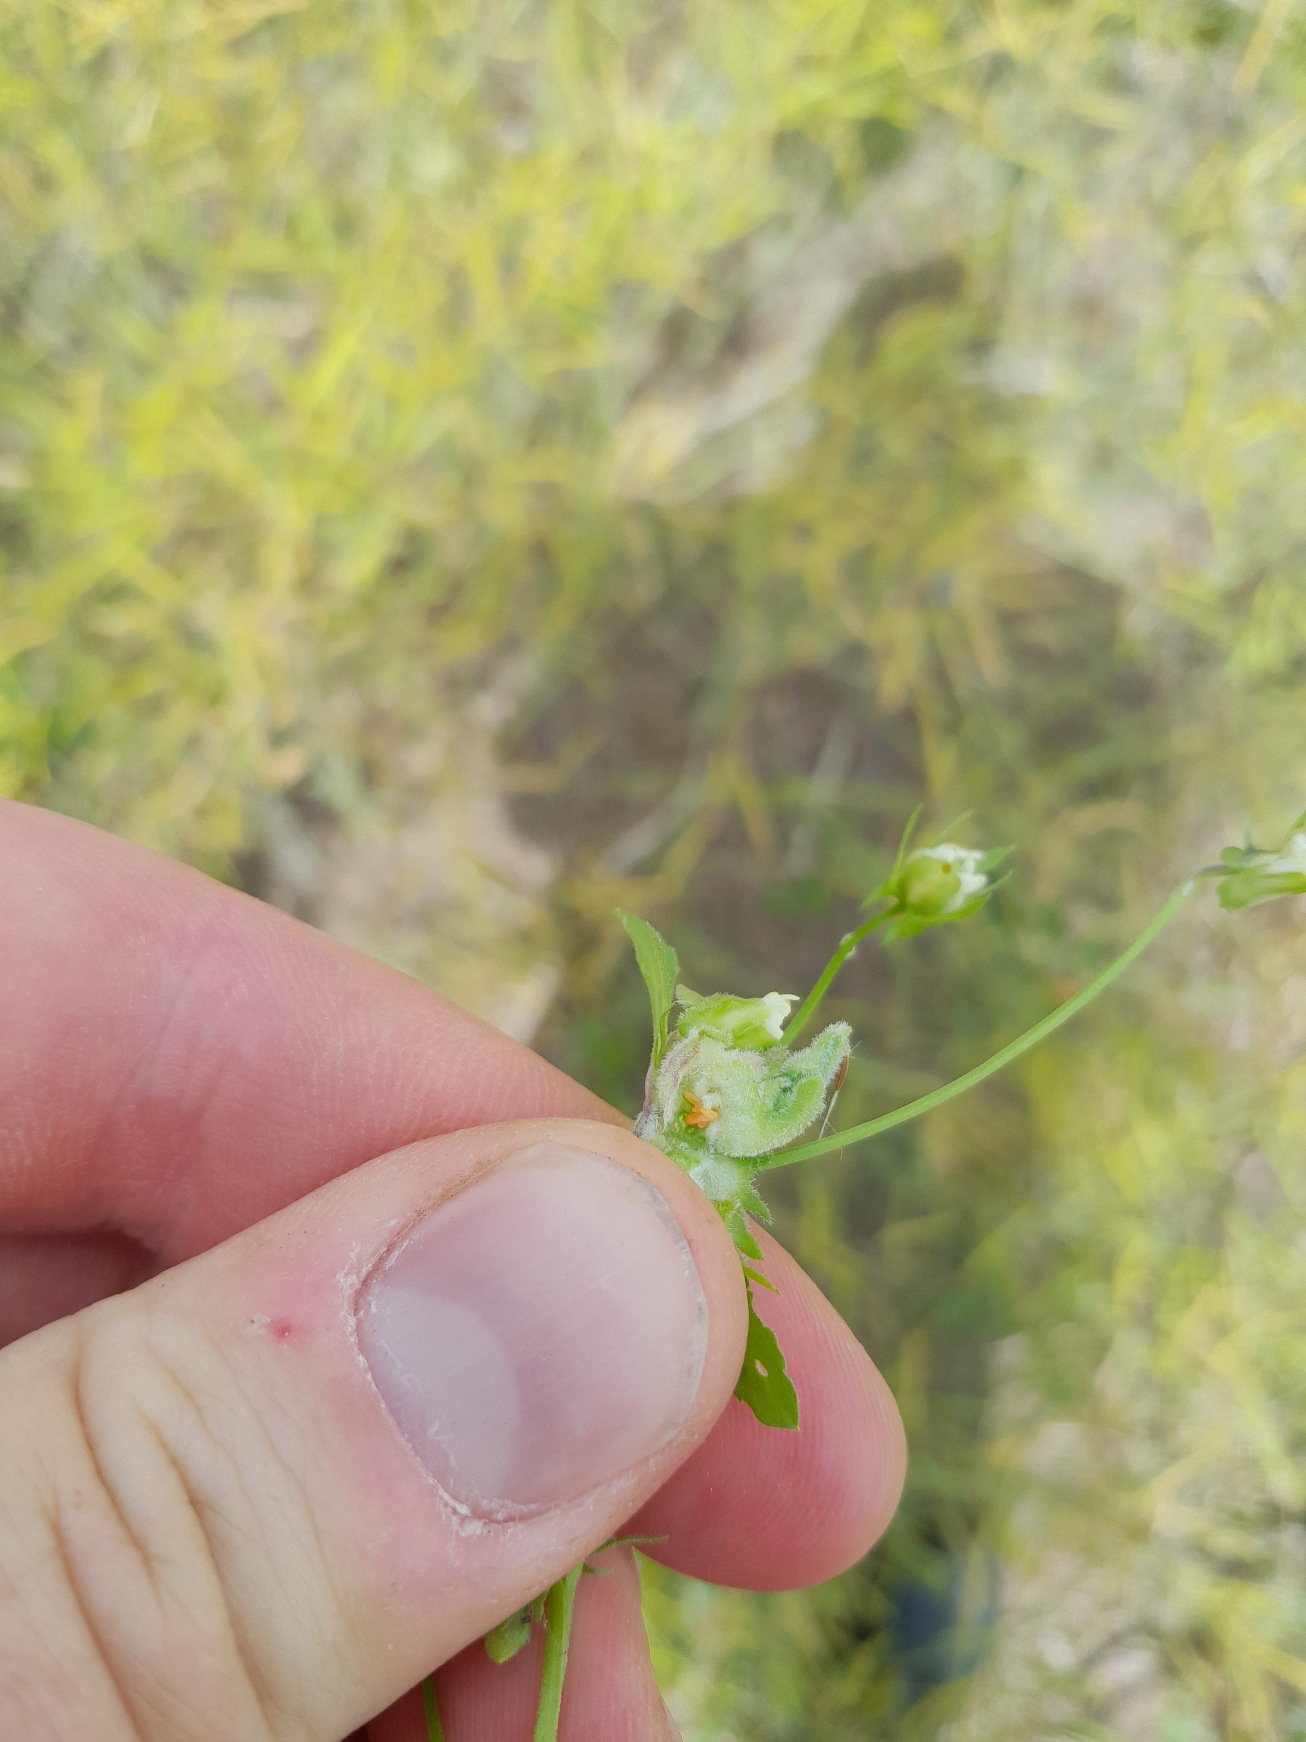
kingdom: Animalia
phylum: Arthropoda
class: Insecta
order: Diptera
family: Cecidomyiidae
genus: Dasineura
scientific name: Dasineura violae
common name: Stedmodergalmyg
